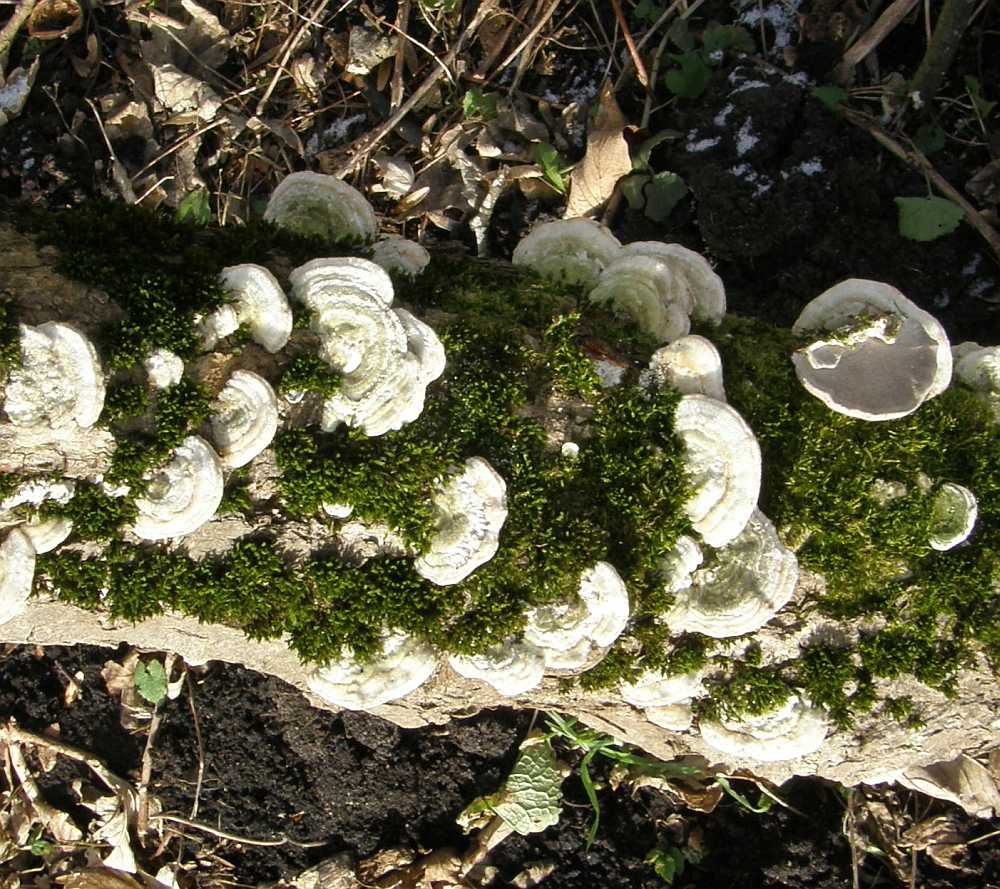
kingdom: Fungi
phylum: Basidiomycota
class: Agaricomycetes
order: Polyporales
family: Polyporaceae
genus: Trametes
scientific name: Trametes hirsuta
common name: håret læderporesvamp
